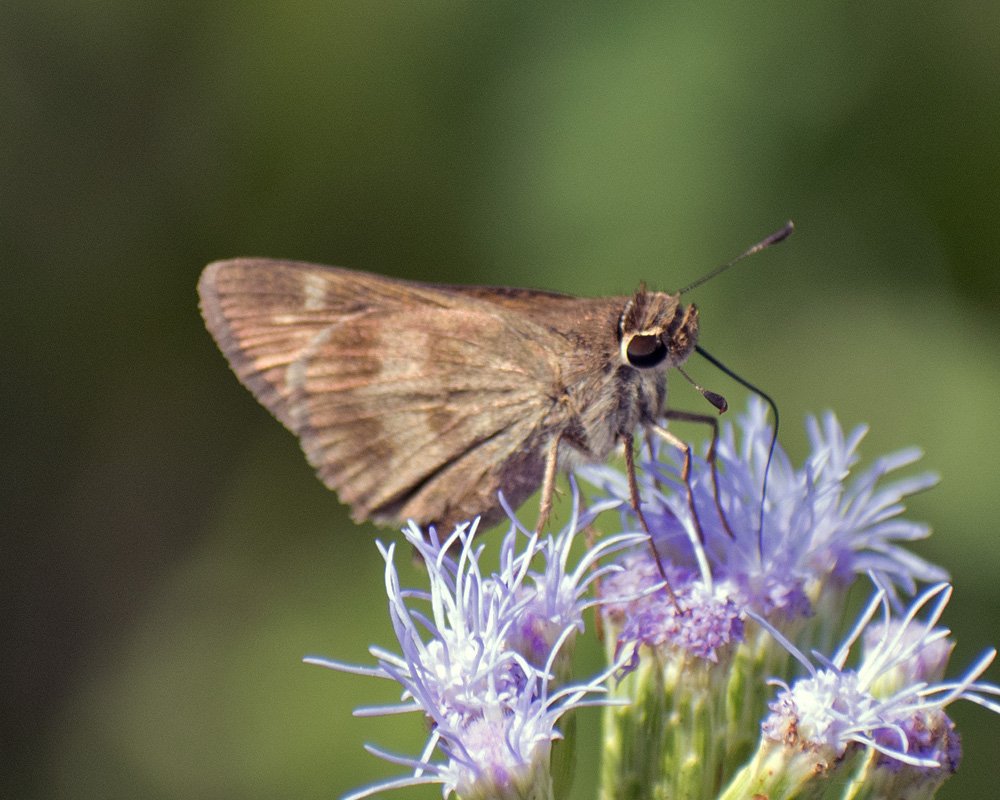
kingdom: Animalia
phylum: Arthropoda
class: Insecta
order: Lepidoptera
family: Hesperiidae
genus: Polites
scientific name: Polites vibex
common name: Whirlabout
